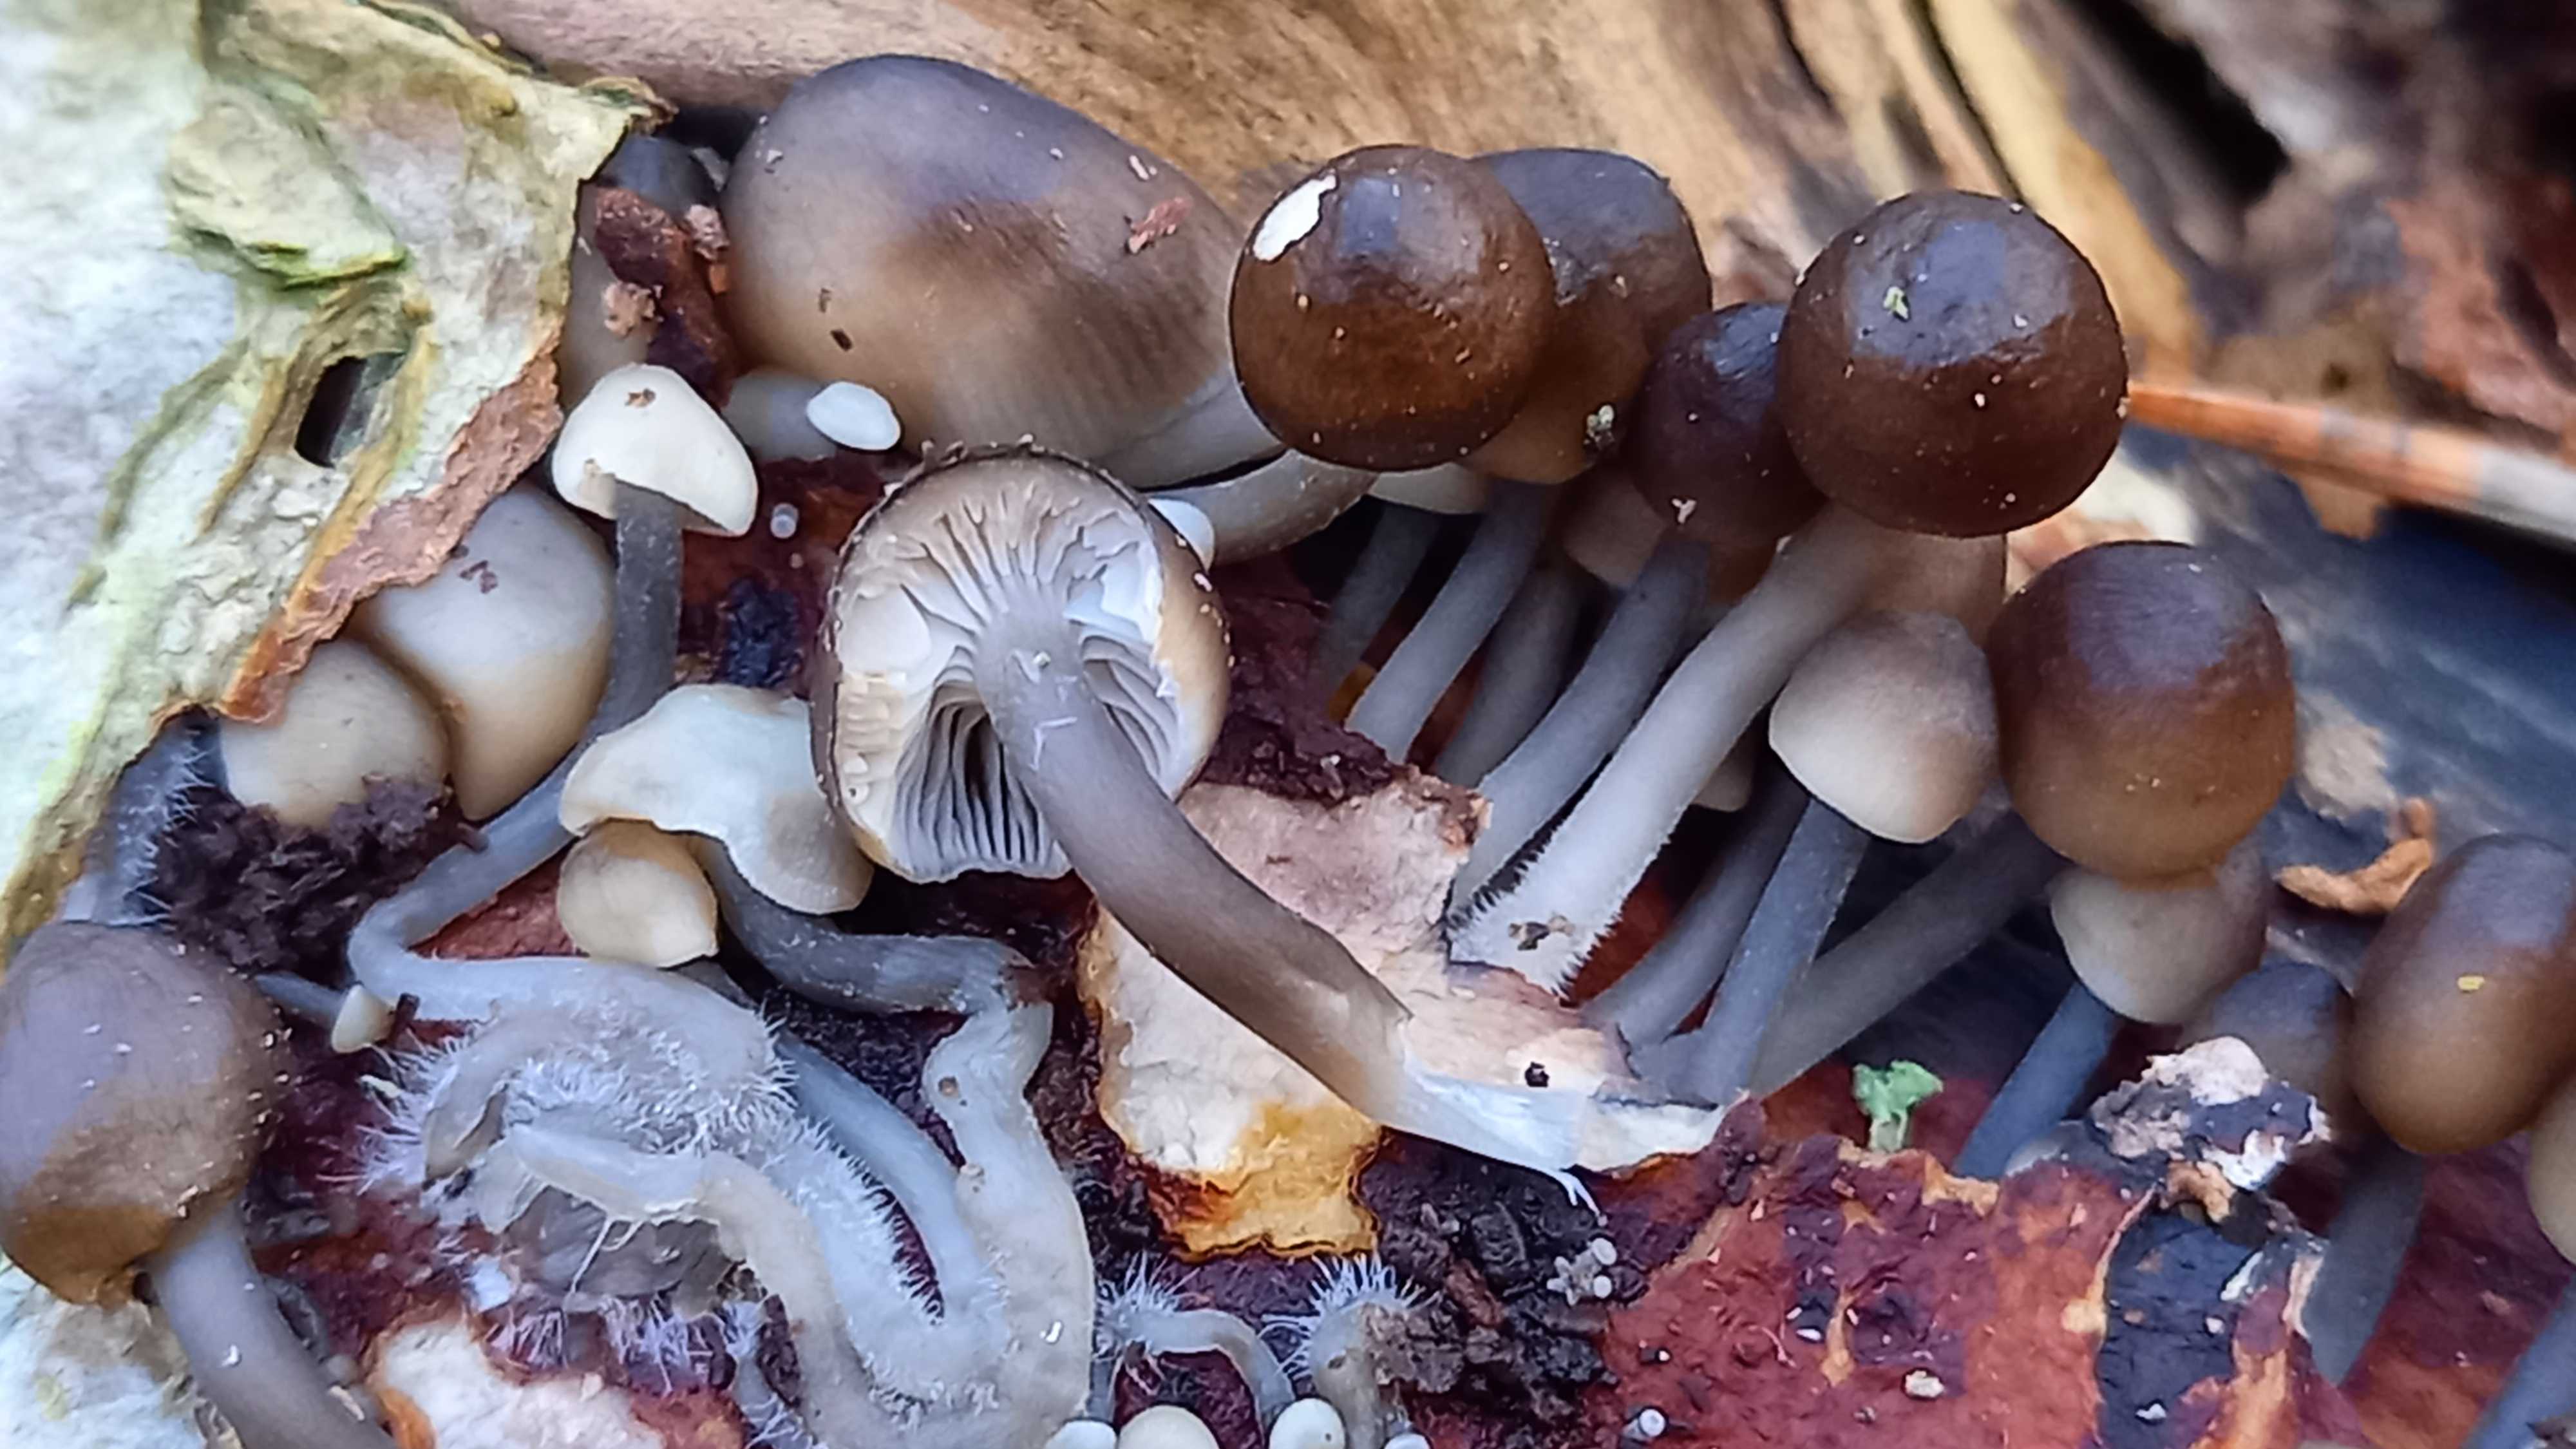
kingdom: Fungi
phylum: Basidiomycota
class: Agaricomycetes
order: Agaricales
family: Mycenaceae
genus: Mycena
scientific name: Mycena tintinnabulum
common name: vinter-huesvamp
